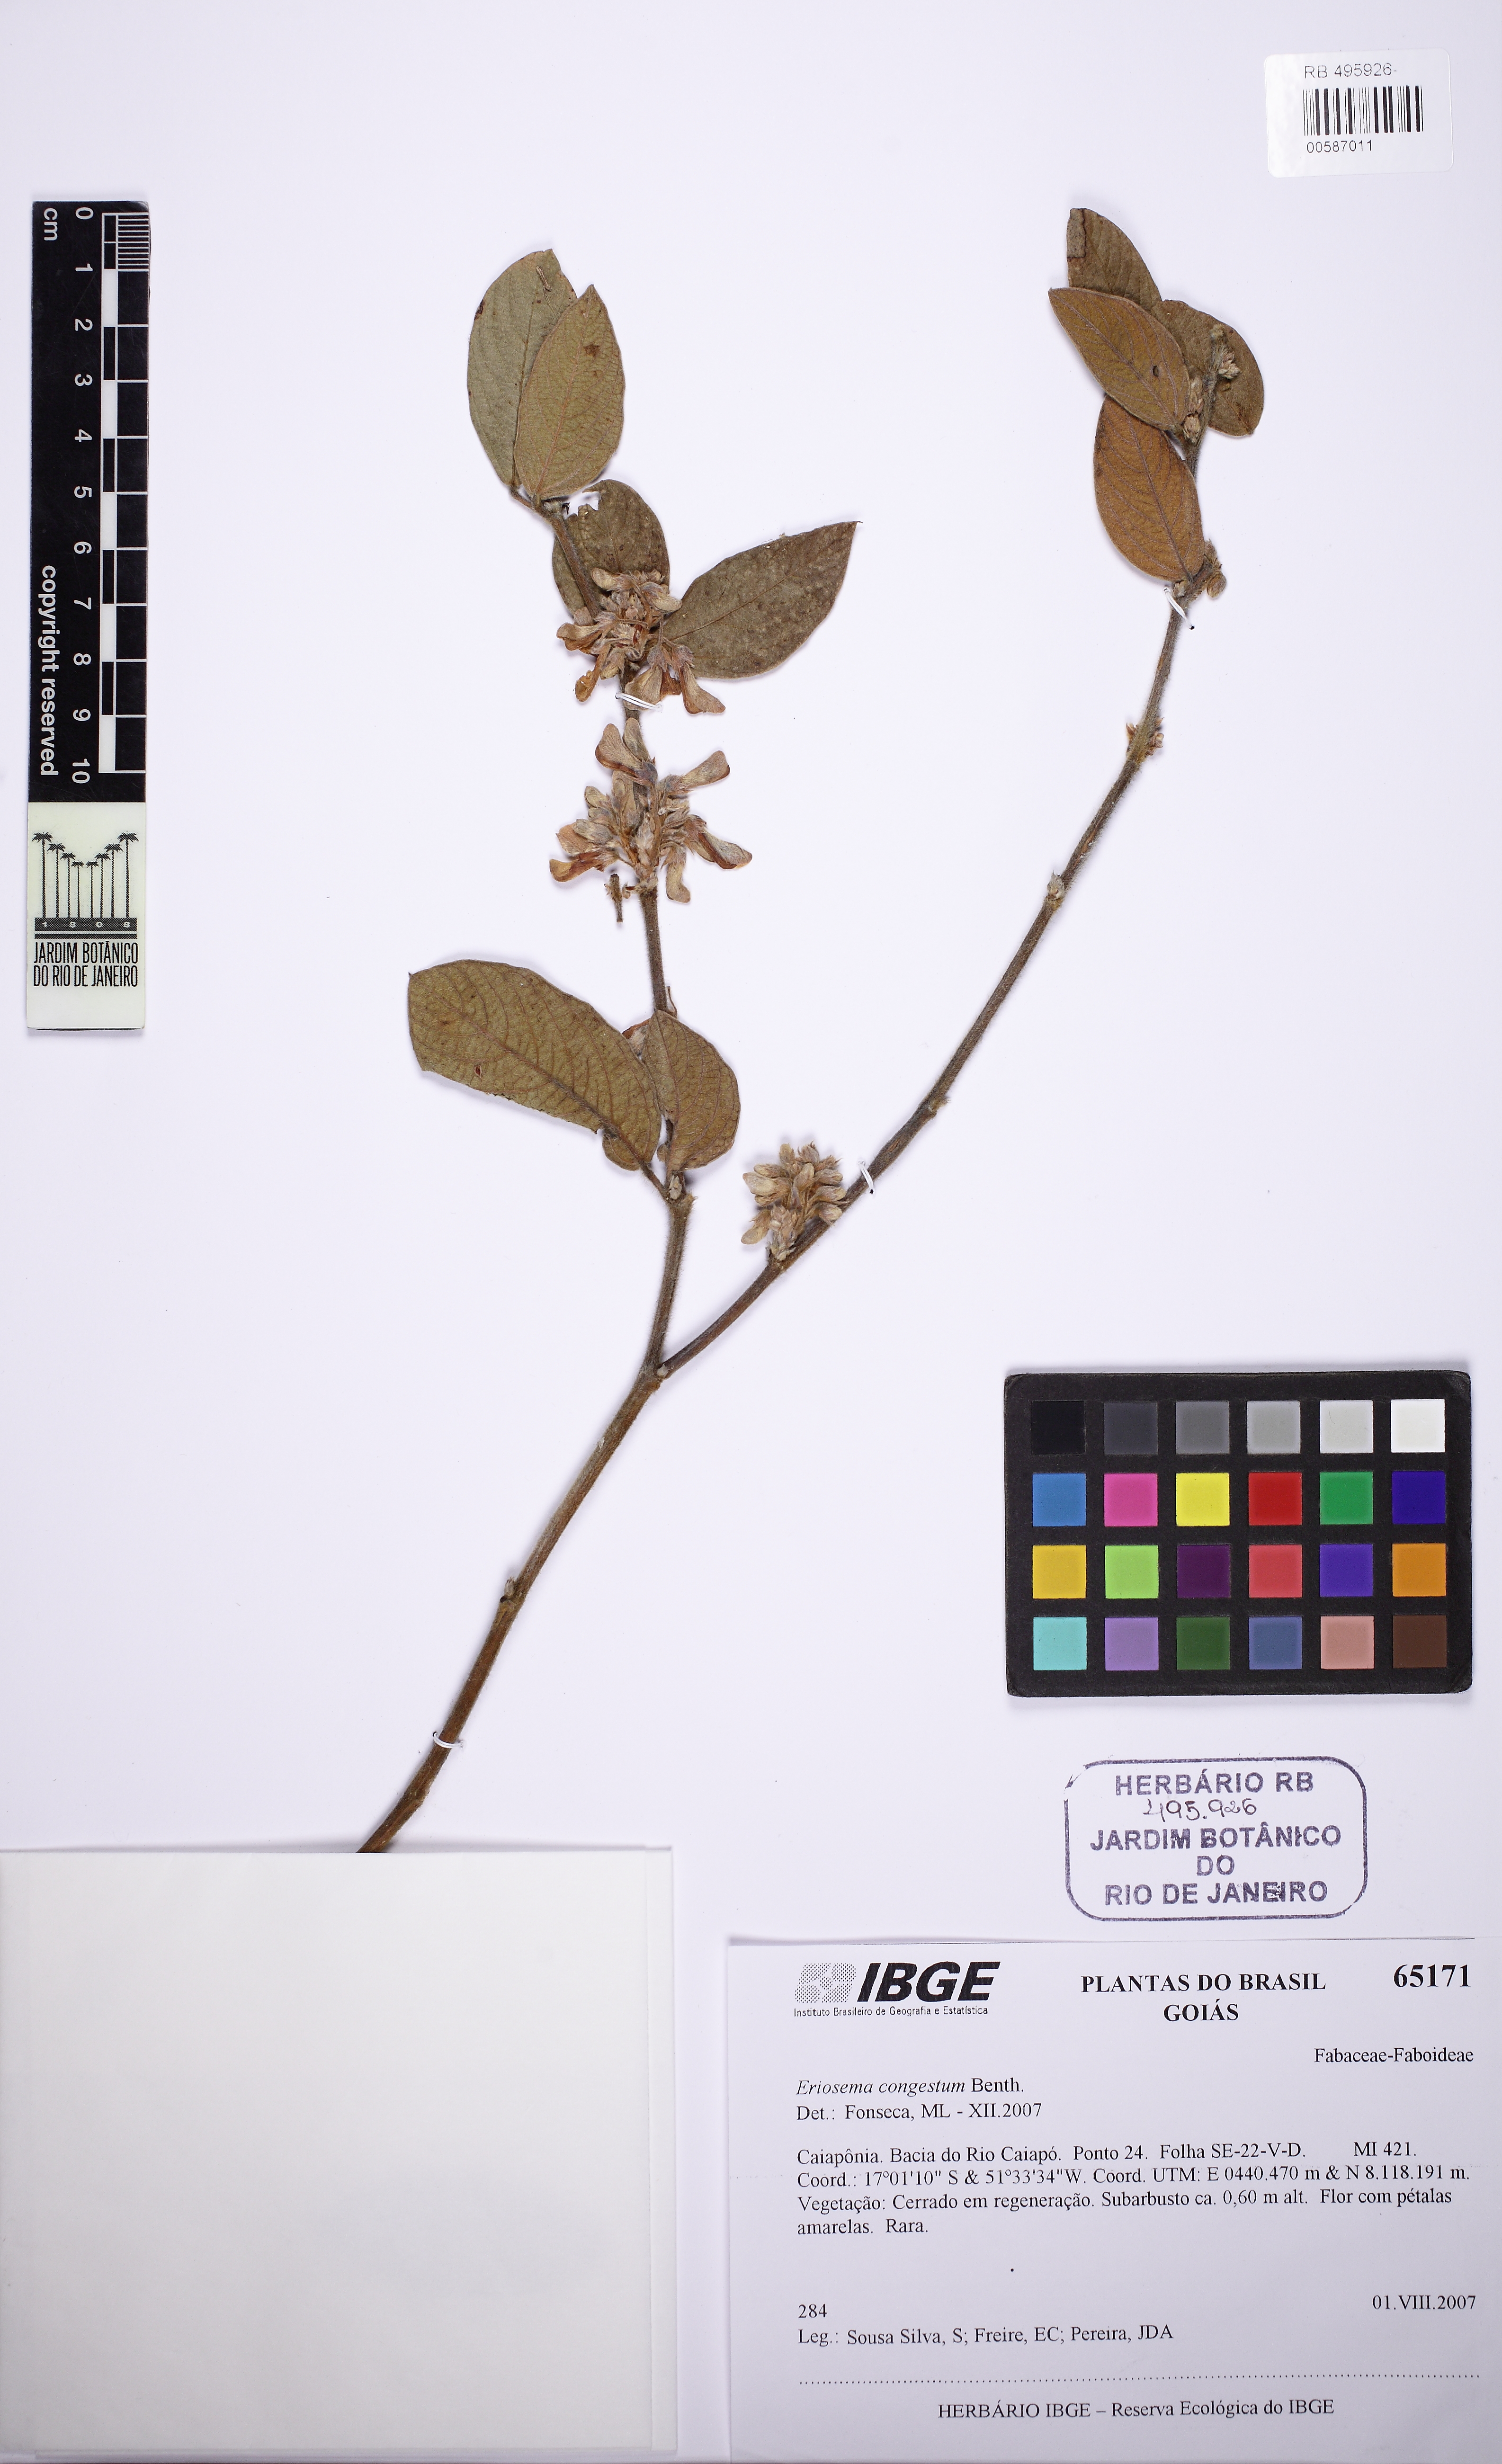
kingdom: Plantae
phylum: Tracheophyta
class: Magnoliopsida
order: Fabales
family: Fabaceae
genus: Eriosema
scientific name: Eriosema congestum
